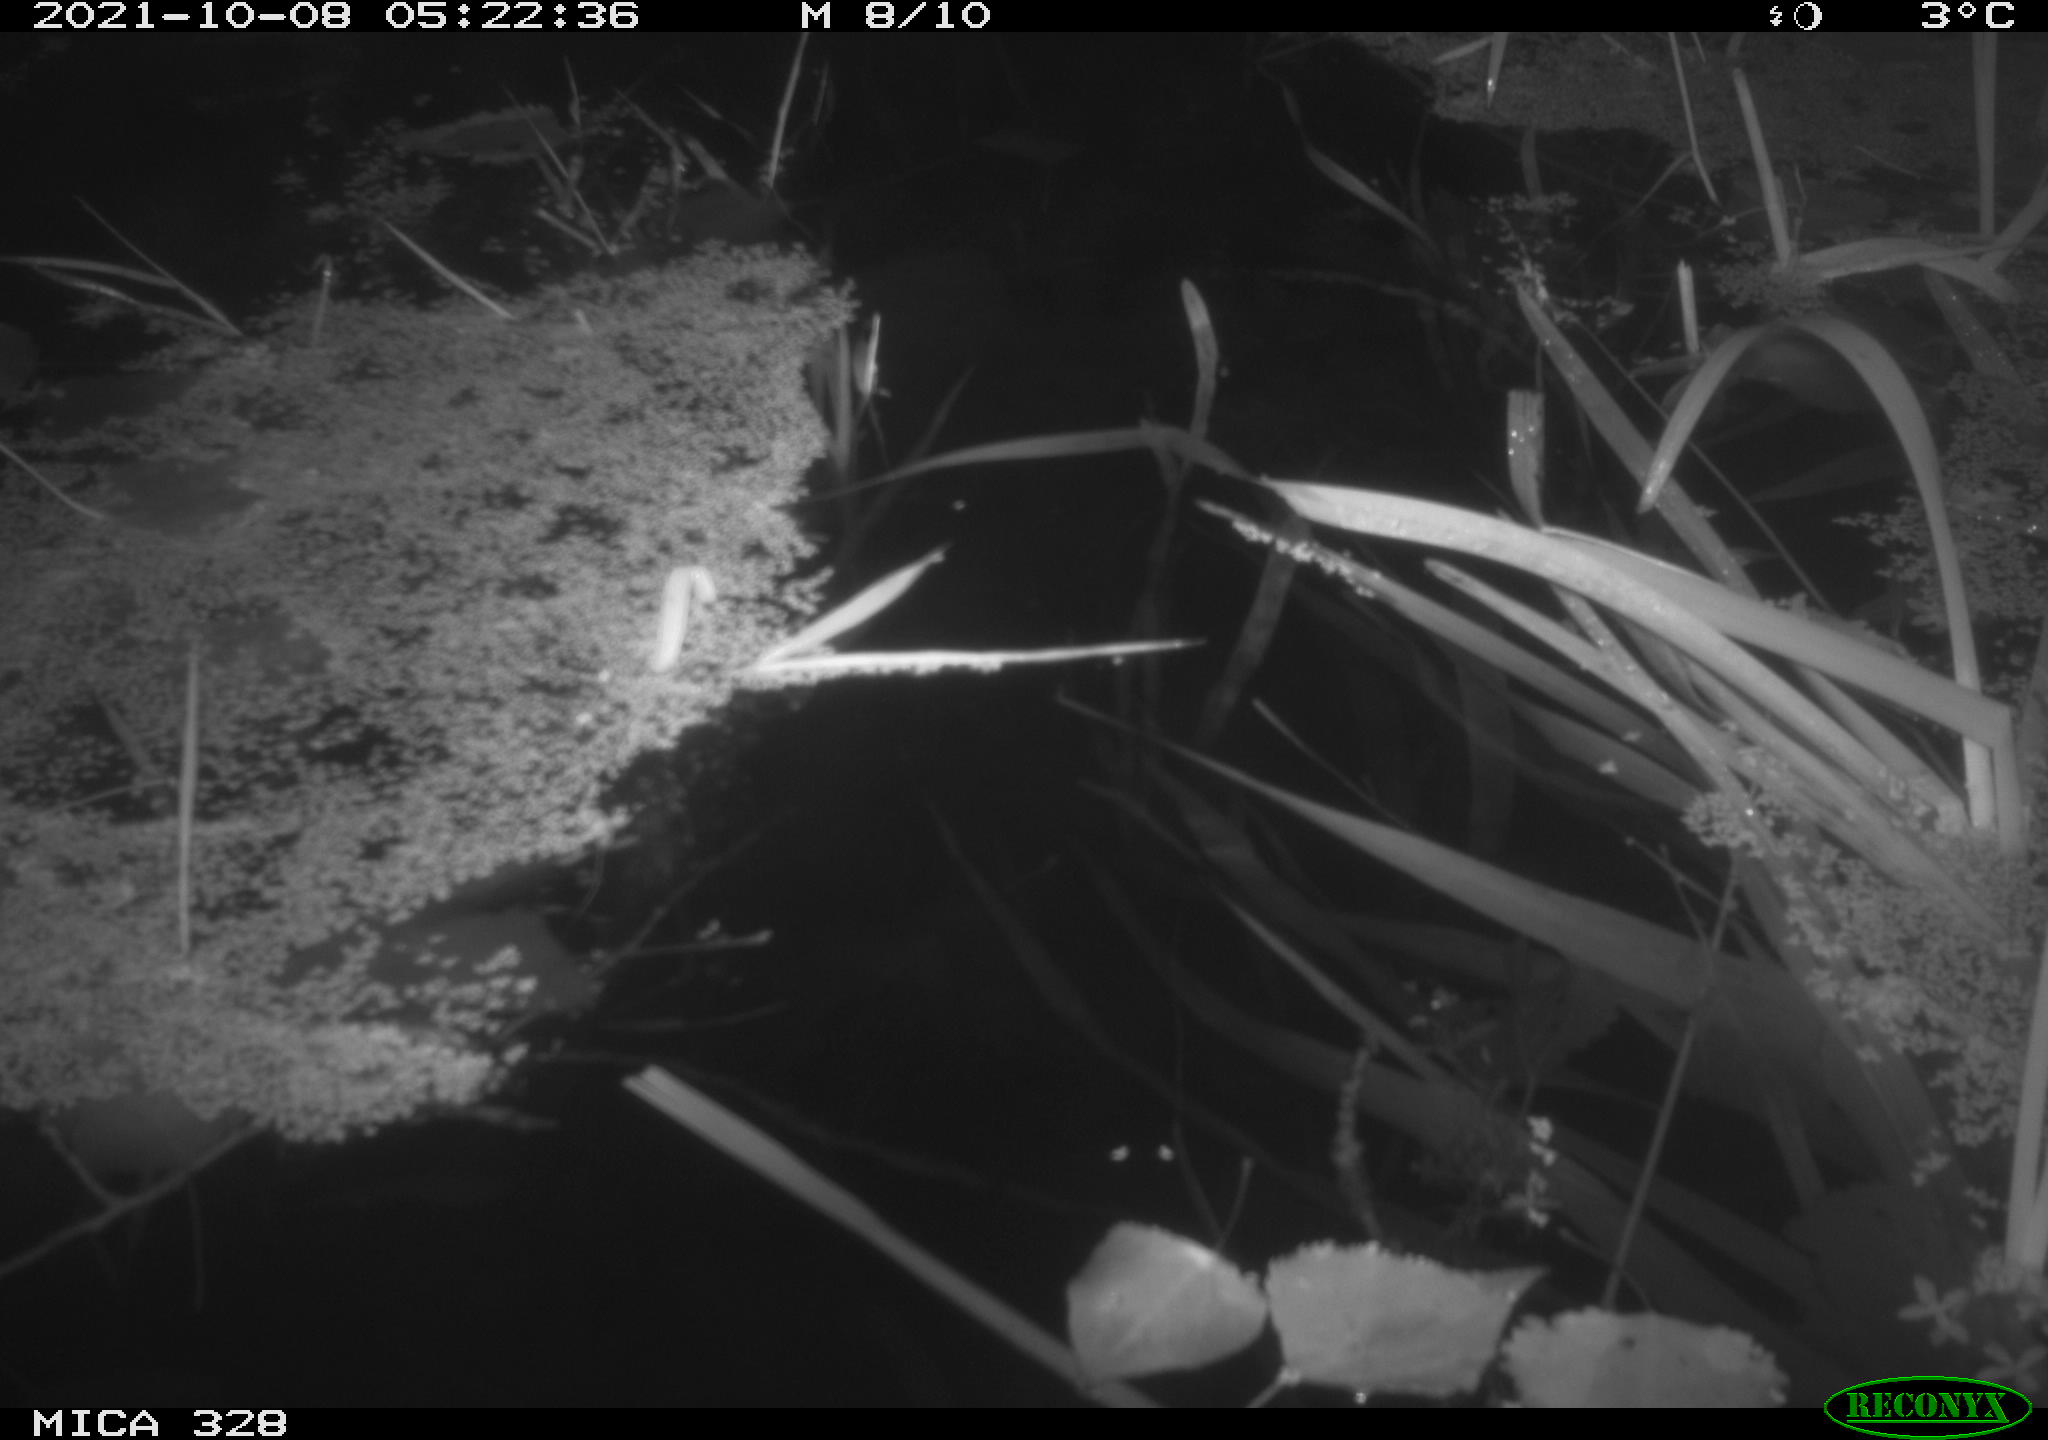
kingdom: Animalia
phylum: Chordata
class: Mammalia
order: Rodentia
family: Cricetidae
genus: Ondatra
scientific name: Ondatra zibethicus
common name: Muskrat
